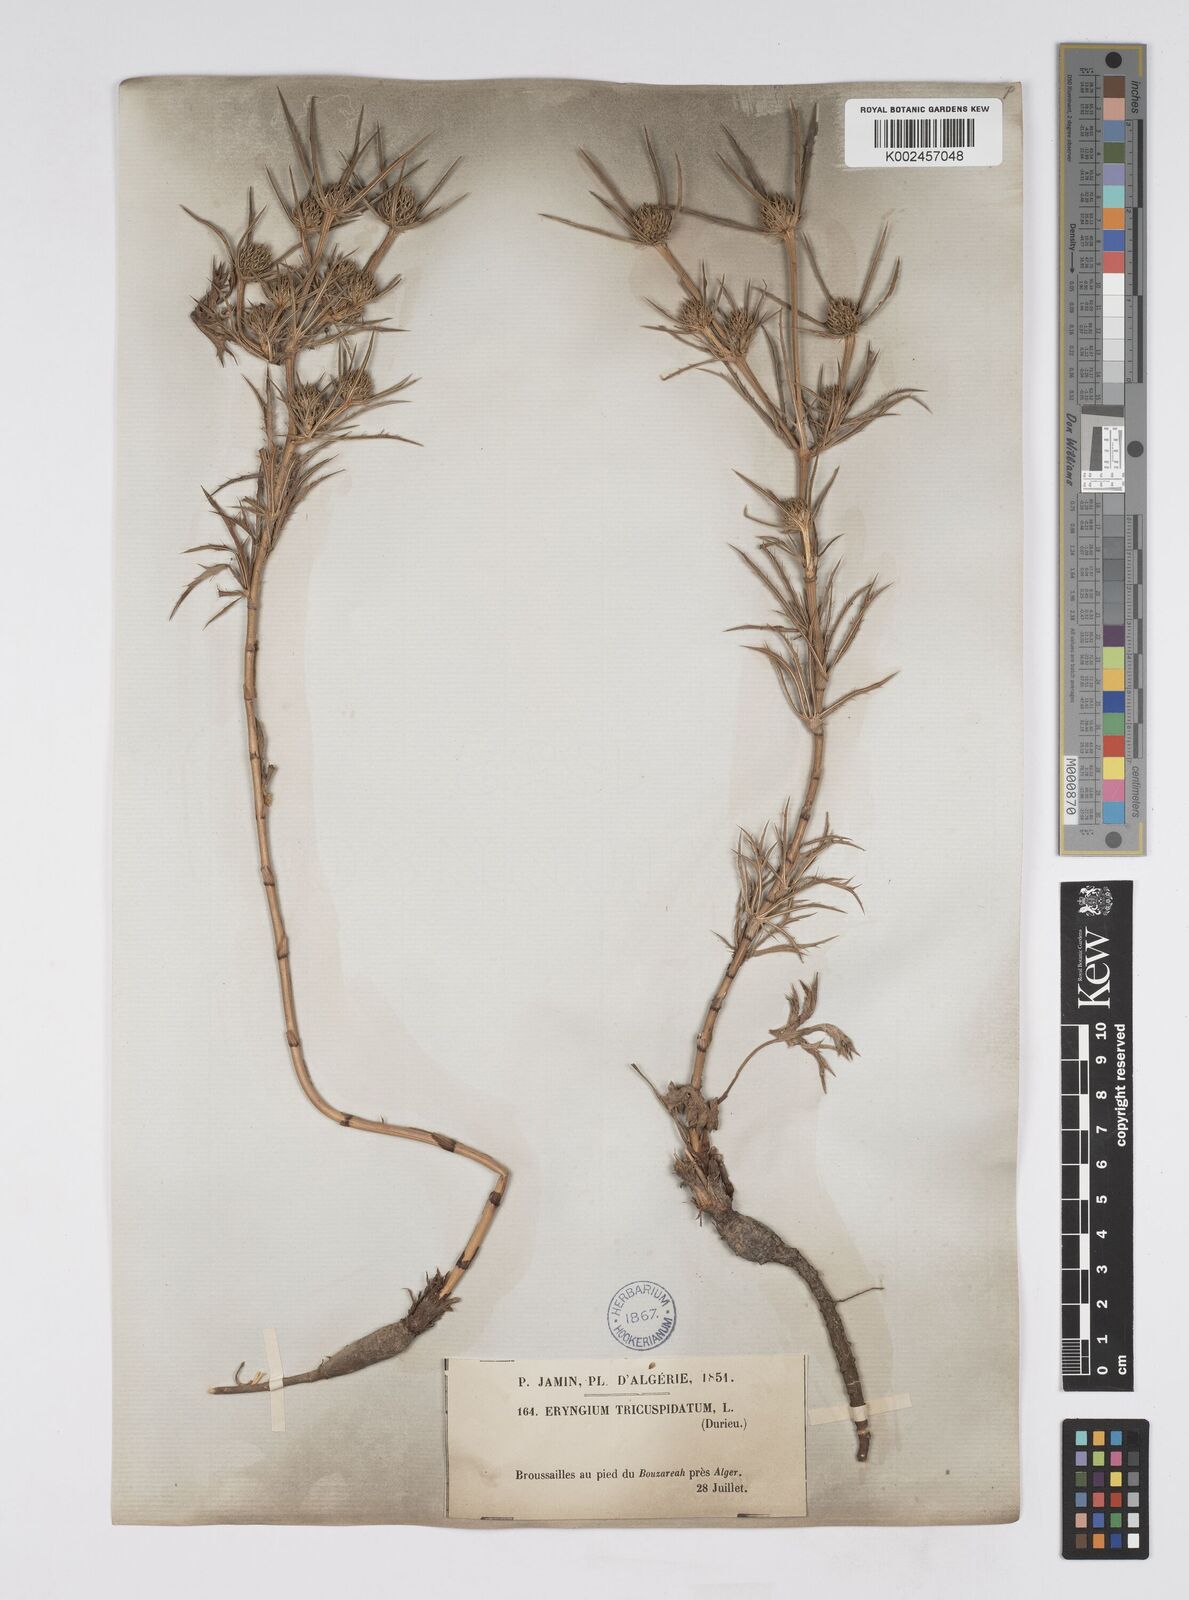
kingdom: Plantae
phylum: Tracheophyta
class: Magnoliopsida
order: Apiales
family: Apiaceae
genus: Eryngium
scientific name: Eryngium tricuspidatum
